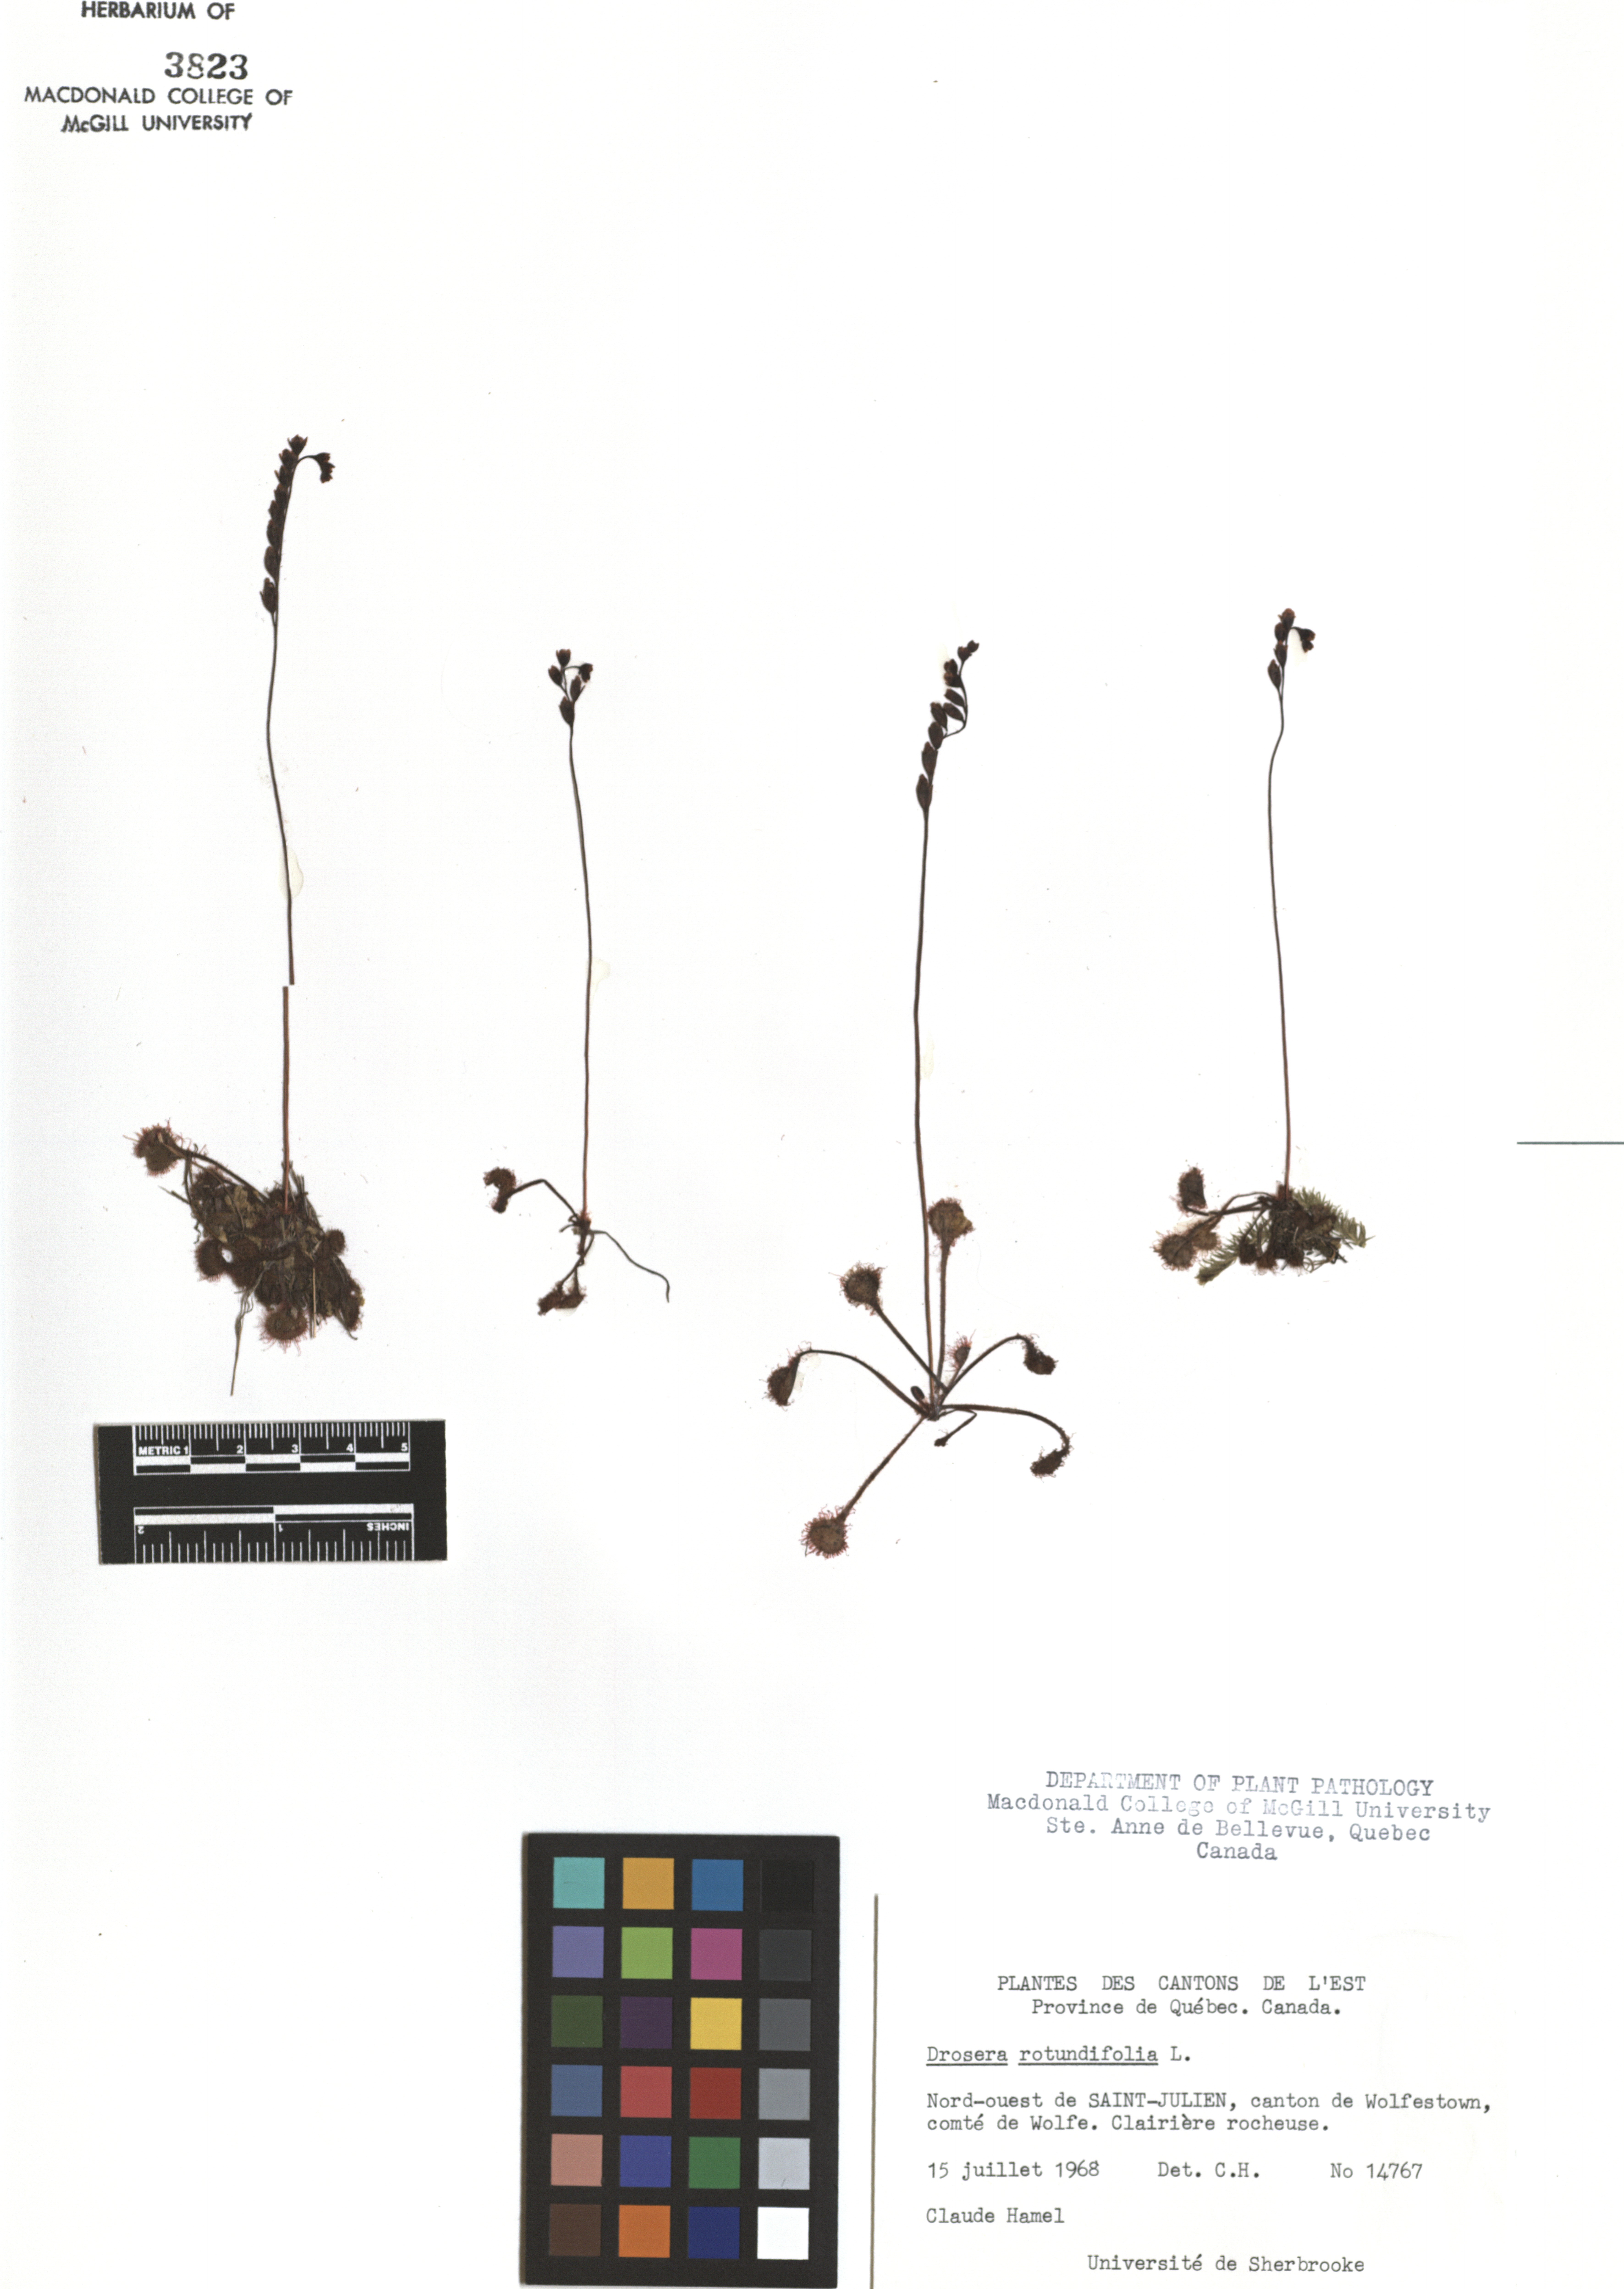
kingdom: Plantae
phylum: Tracheophyta
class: Magnoliopsida
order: Caryophyllales
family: Droseraceae
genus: Drosera
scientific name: Drosera rotundifolia
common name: Round-leaved sundew
